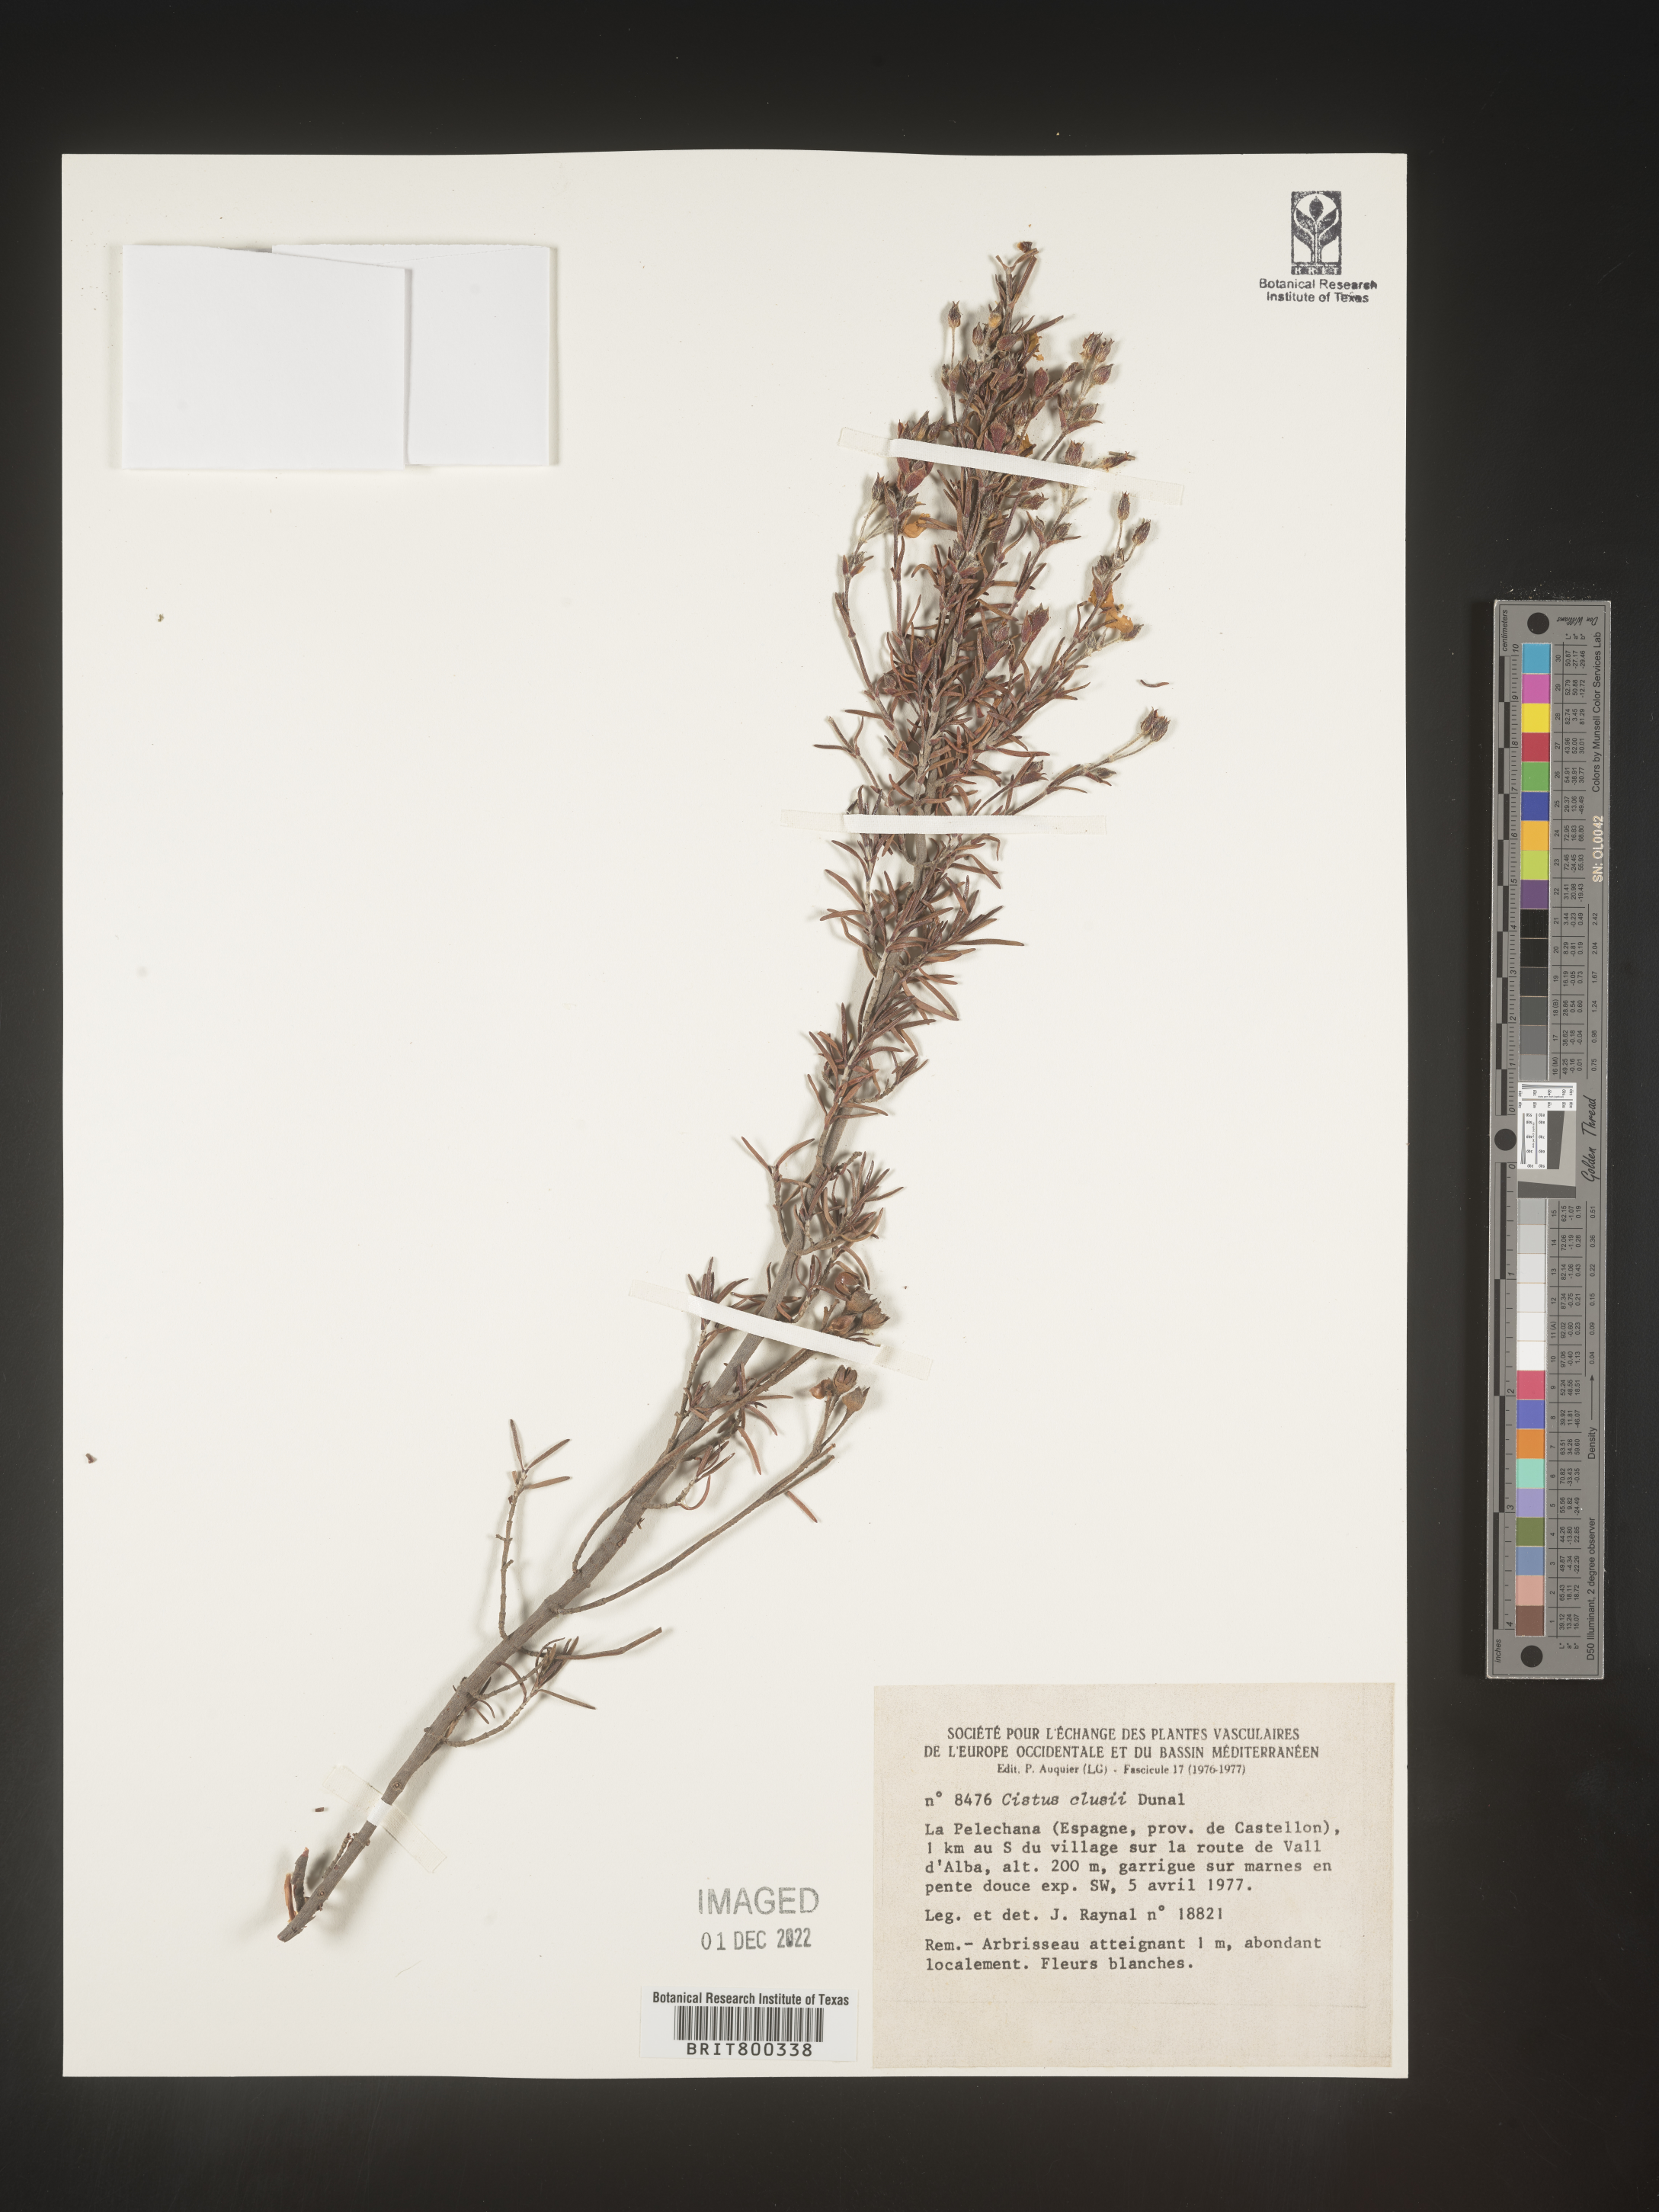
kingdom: Plantae
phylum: Tracheophyta
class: Magnoliopsida
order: Malvales
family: Cistaceae
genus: Cistus
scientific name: Cistus
